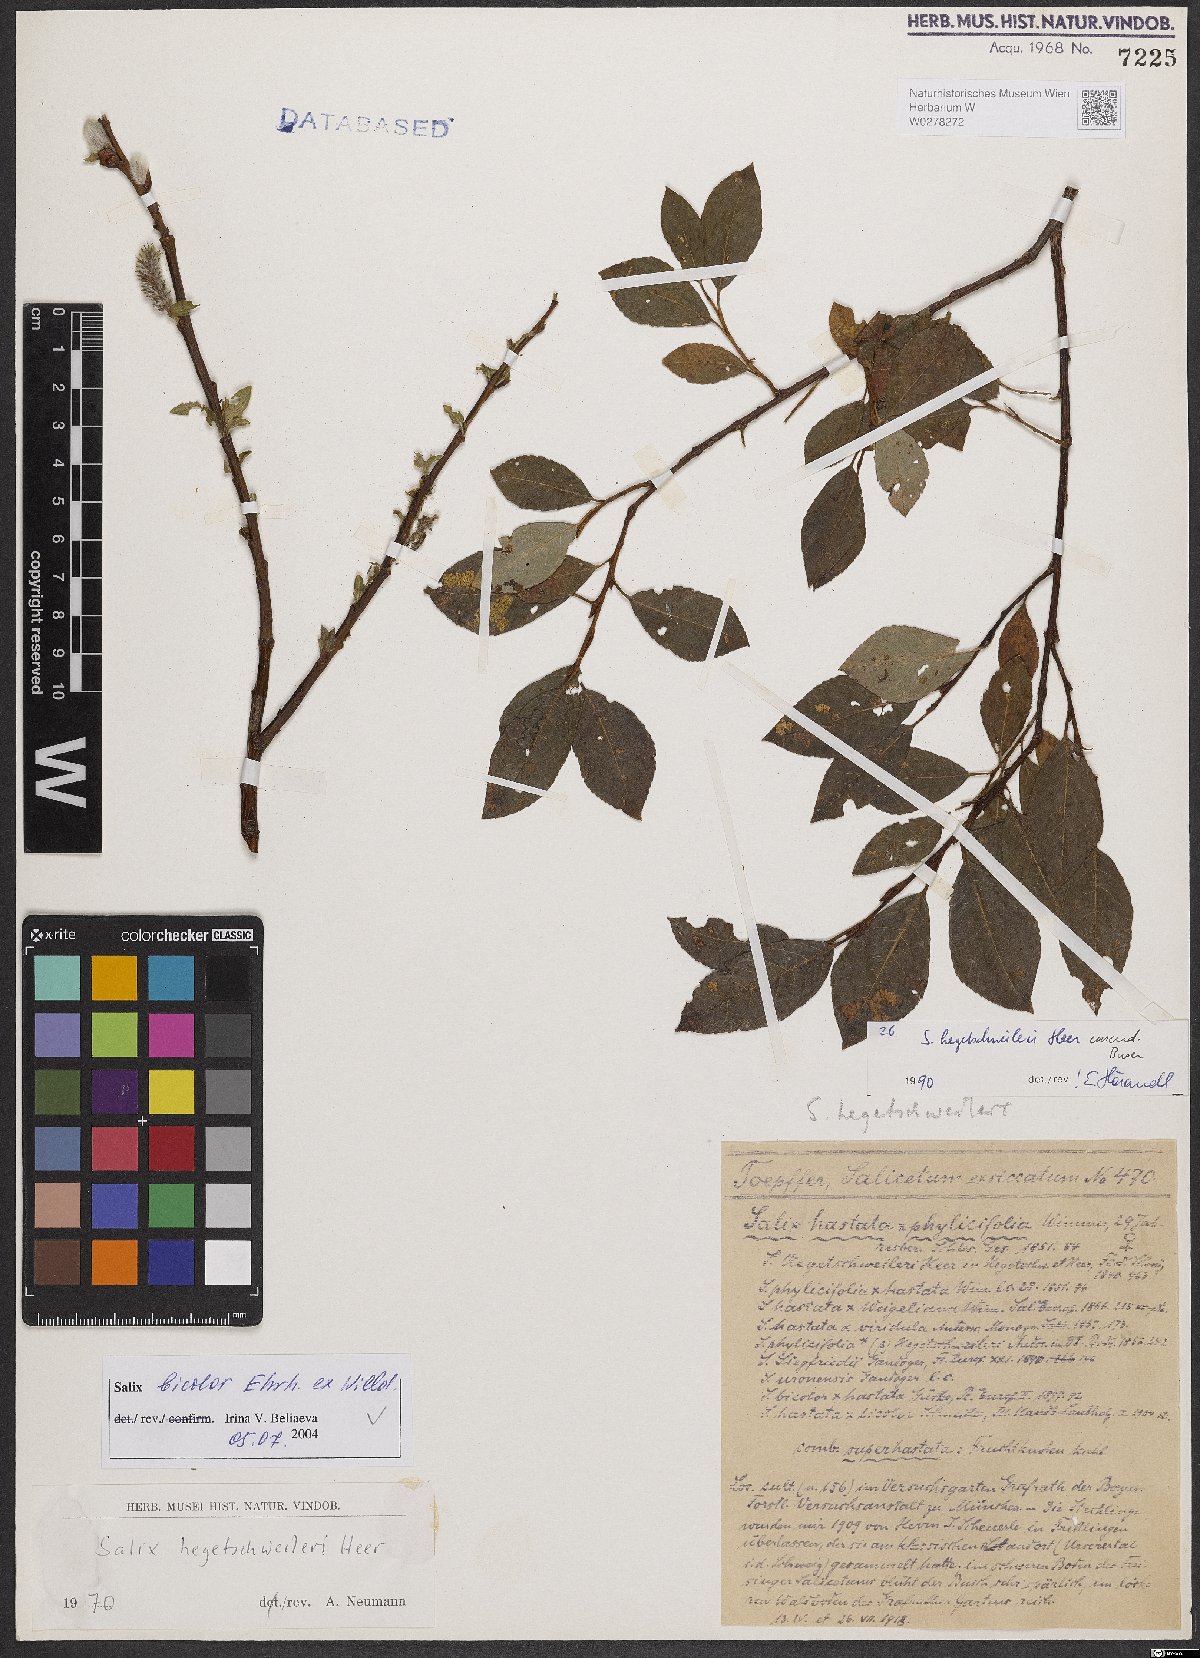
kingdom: Plantae
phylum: Tracheophyta
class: Magnoliopsida
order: Malpighiales
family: Salicaceae
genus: Salix
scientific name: Salix bicolor
